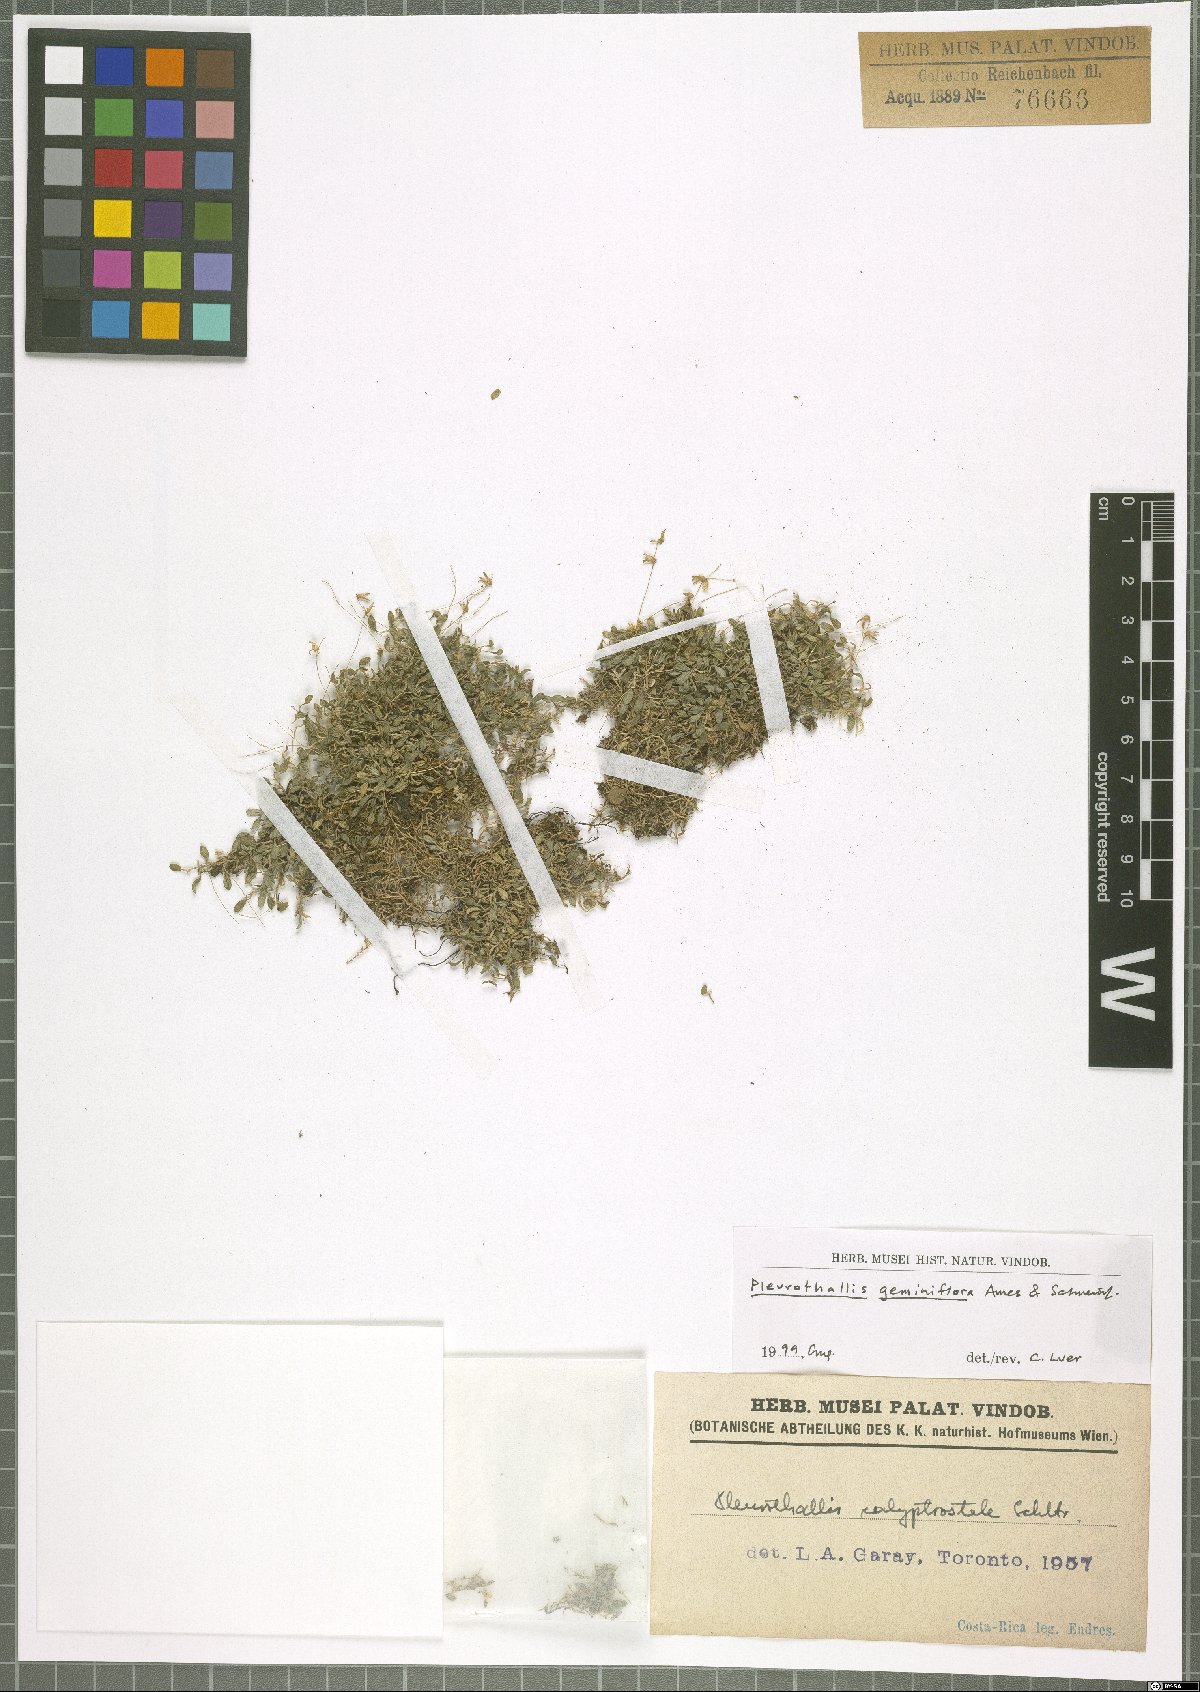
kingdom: Plantae
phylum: Tracheophyta
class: Liliopsida
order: Asparagales
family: Orchidaceae
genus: Specklinia
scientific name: Specklinia calyptrostele
